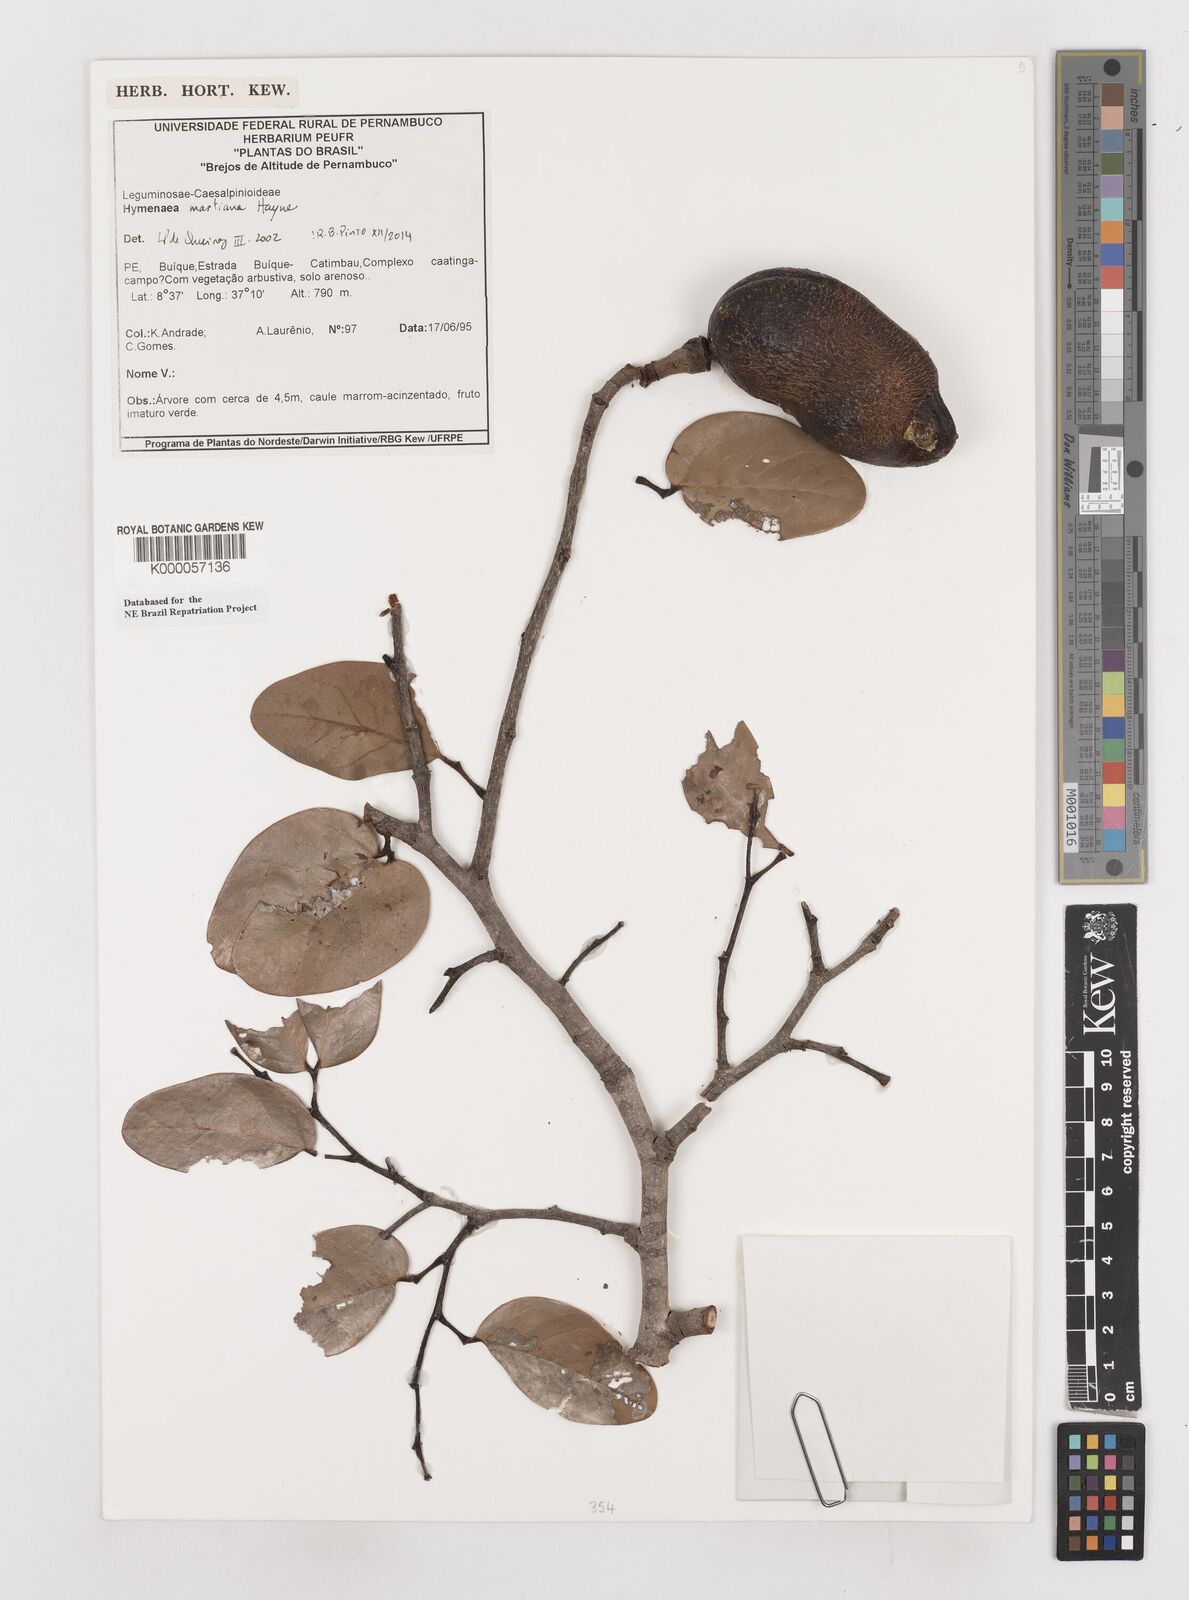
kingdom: Plantae
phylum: Tracheophyta
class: Magnoliopsida
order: Fabales
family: Fabaceae
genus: Hymenaea
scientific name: Hymenaea martiana
